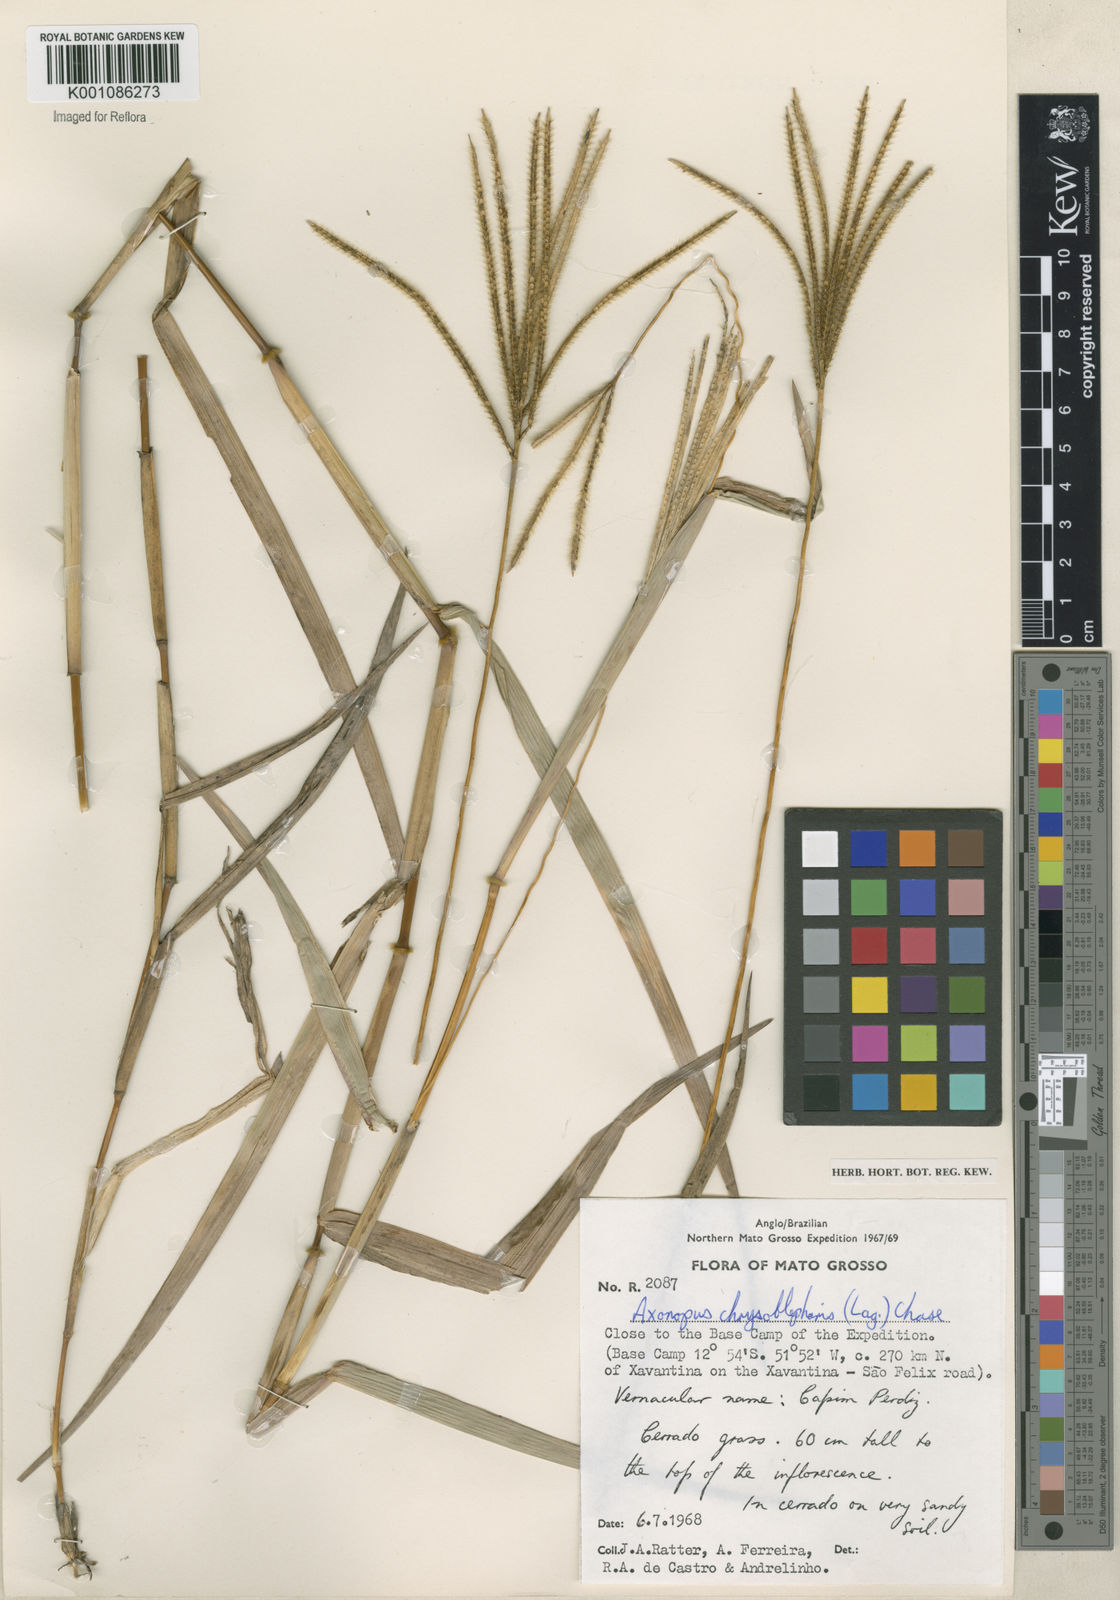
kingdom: Plantae
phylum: Tracheophyta
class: Liliopsida
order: Poales
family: Poaceae
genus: Axonopus
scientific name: Axonopus chrysoblepharis
